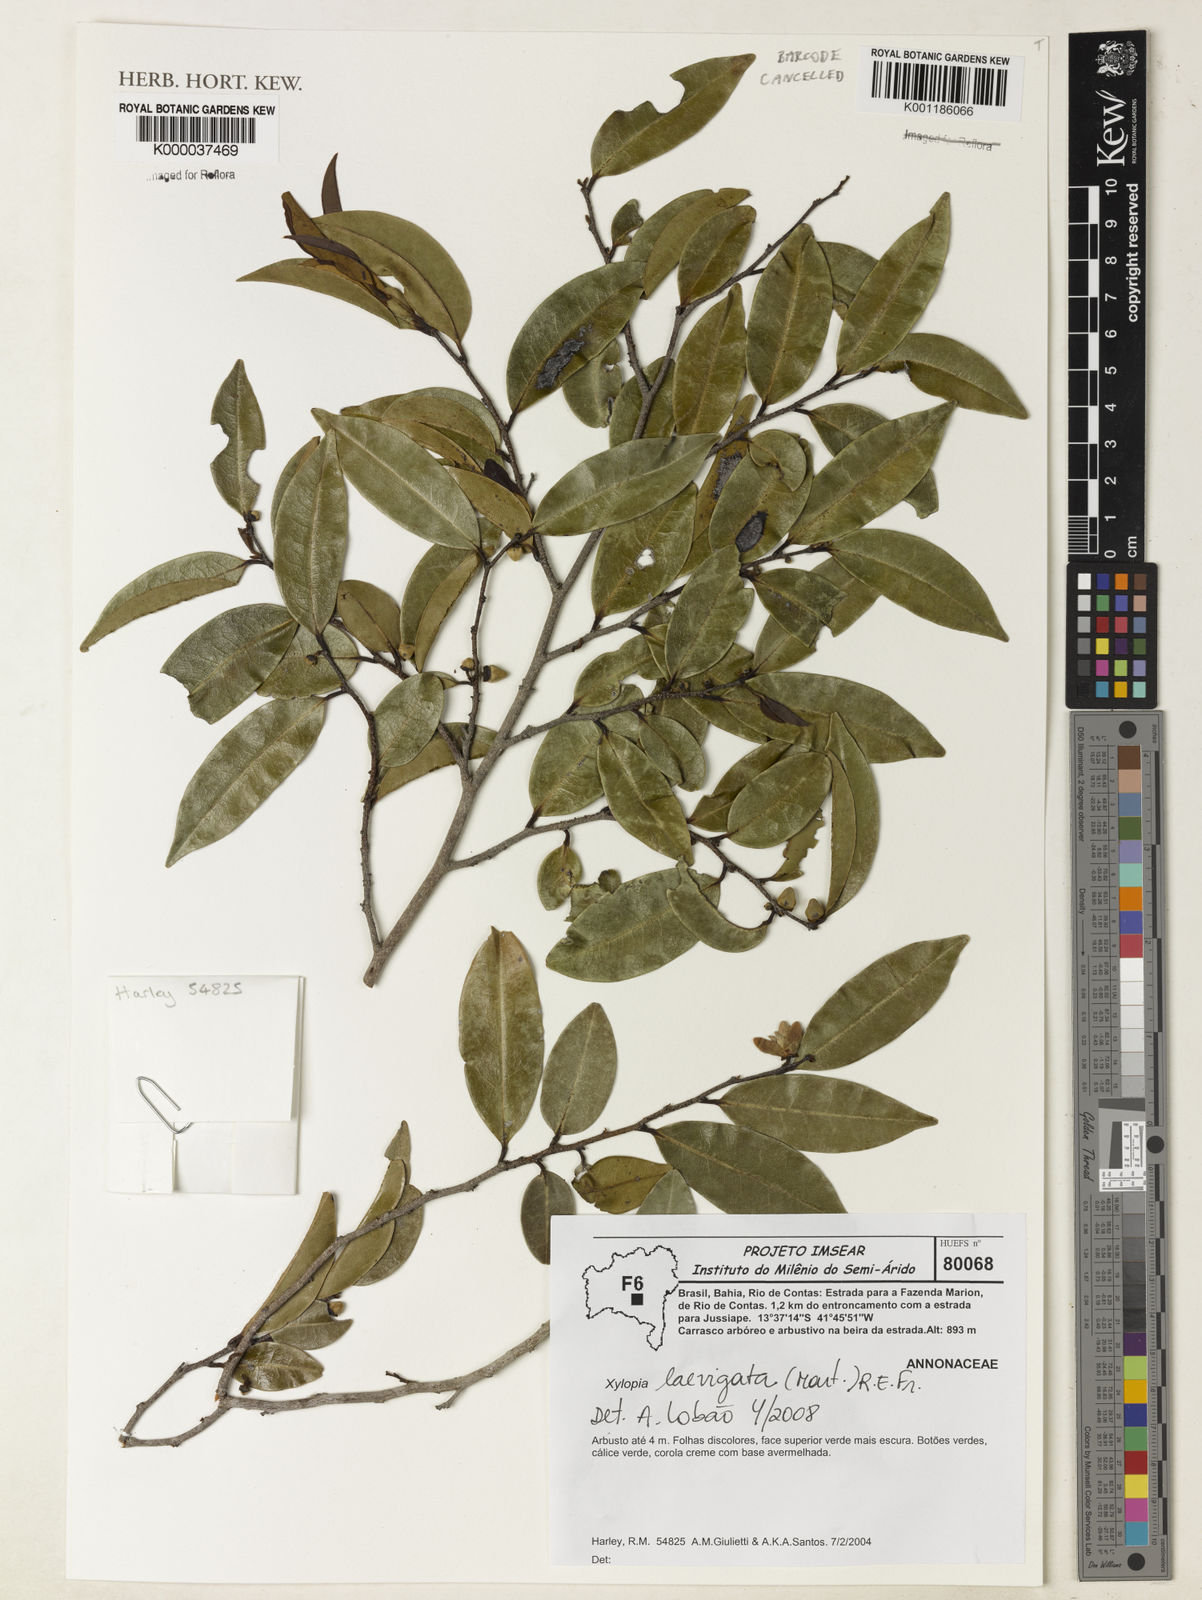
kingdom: Plantae
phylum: Tracheophyta
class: Magnoliopsida
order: Magnoliales
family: Annonaceae
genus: Xylopia
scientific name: Xylopia laevigata
